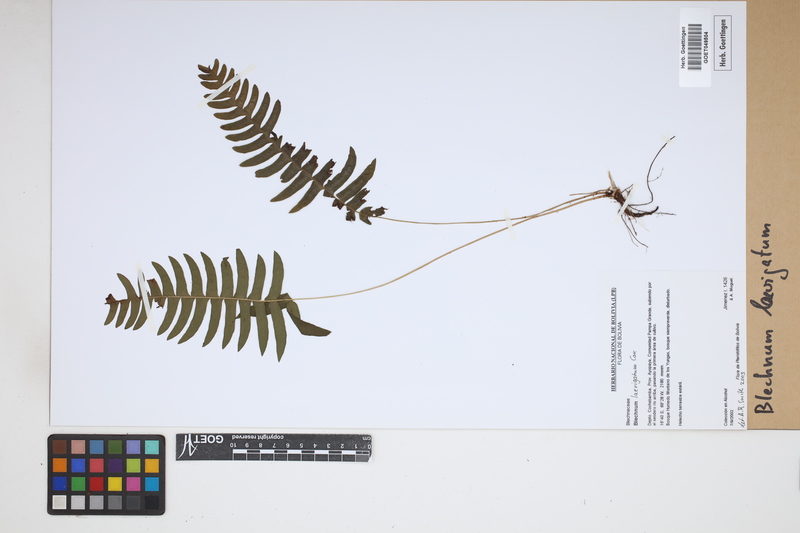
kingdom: Plantae
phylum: Tracheophyta
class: Polypodiopsida
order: Polypodiales
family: Blechnaceae
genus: Blechnum
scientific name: Blechnum laevigatum
